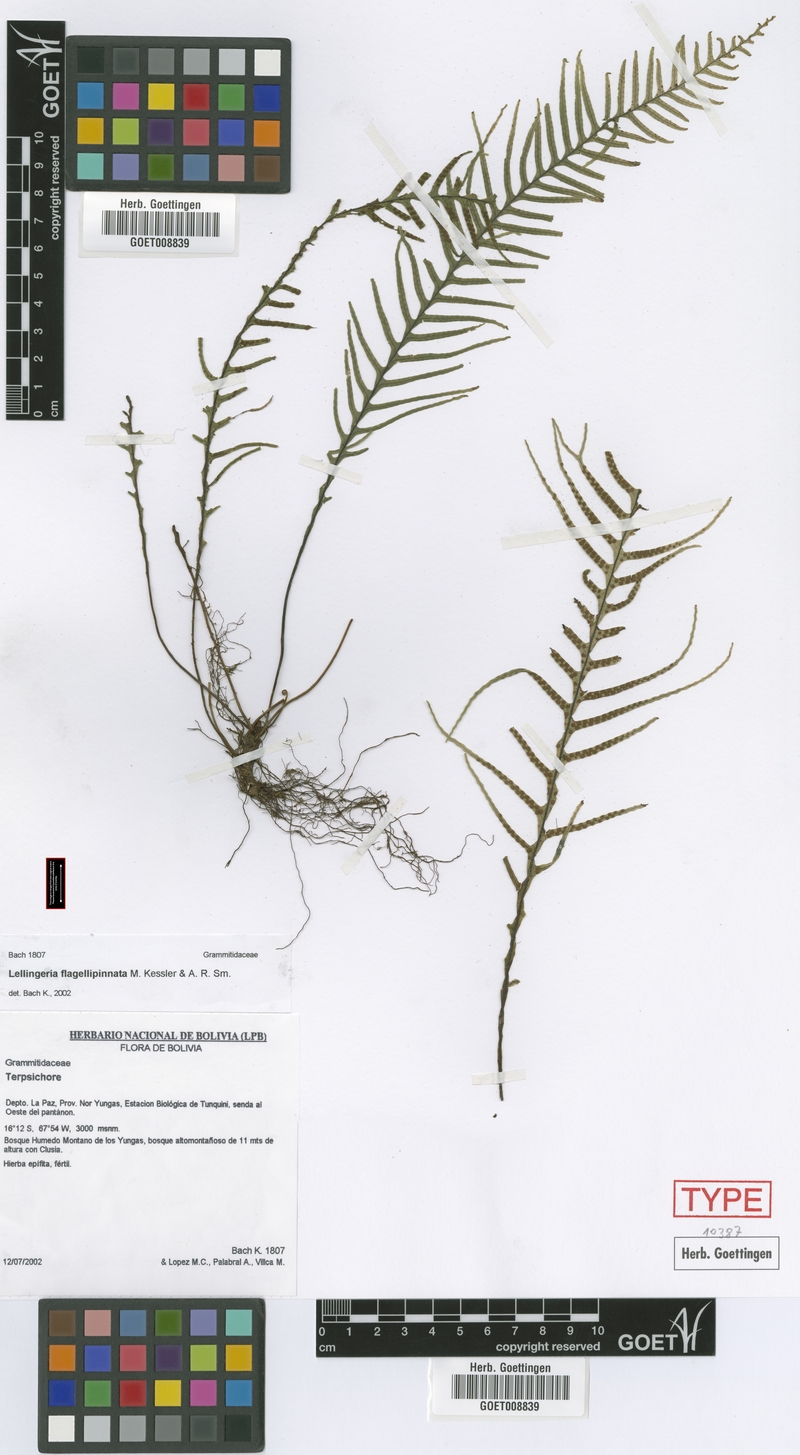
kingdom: Plantae
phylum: Tracheophyta
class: Polypodiopsida
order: Polypodiales
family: Polypodiaceae
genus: Lellingeria
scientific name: Lellingeria flagellipinnata
